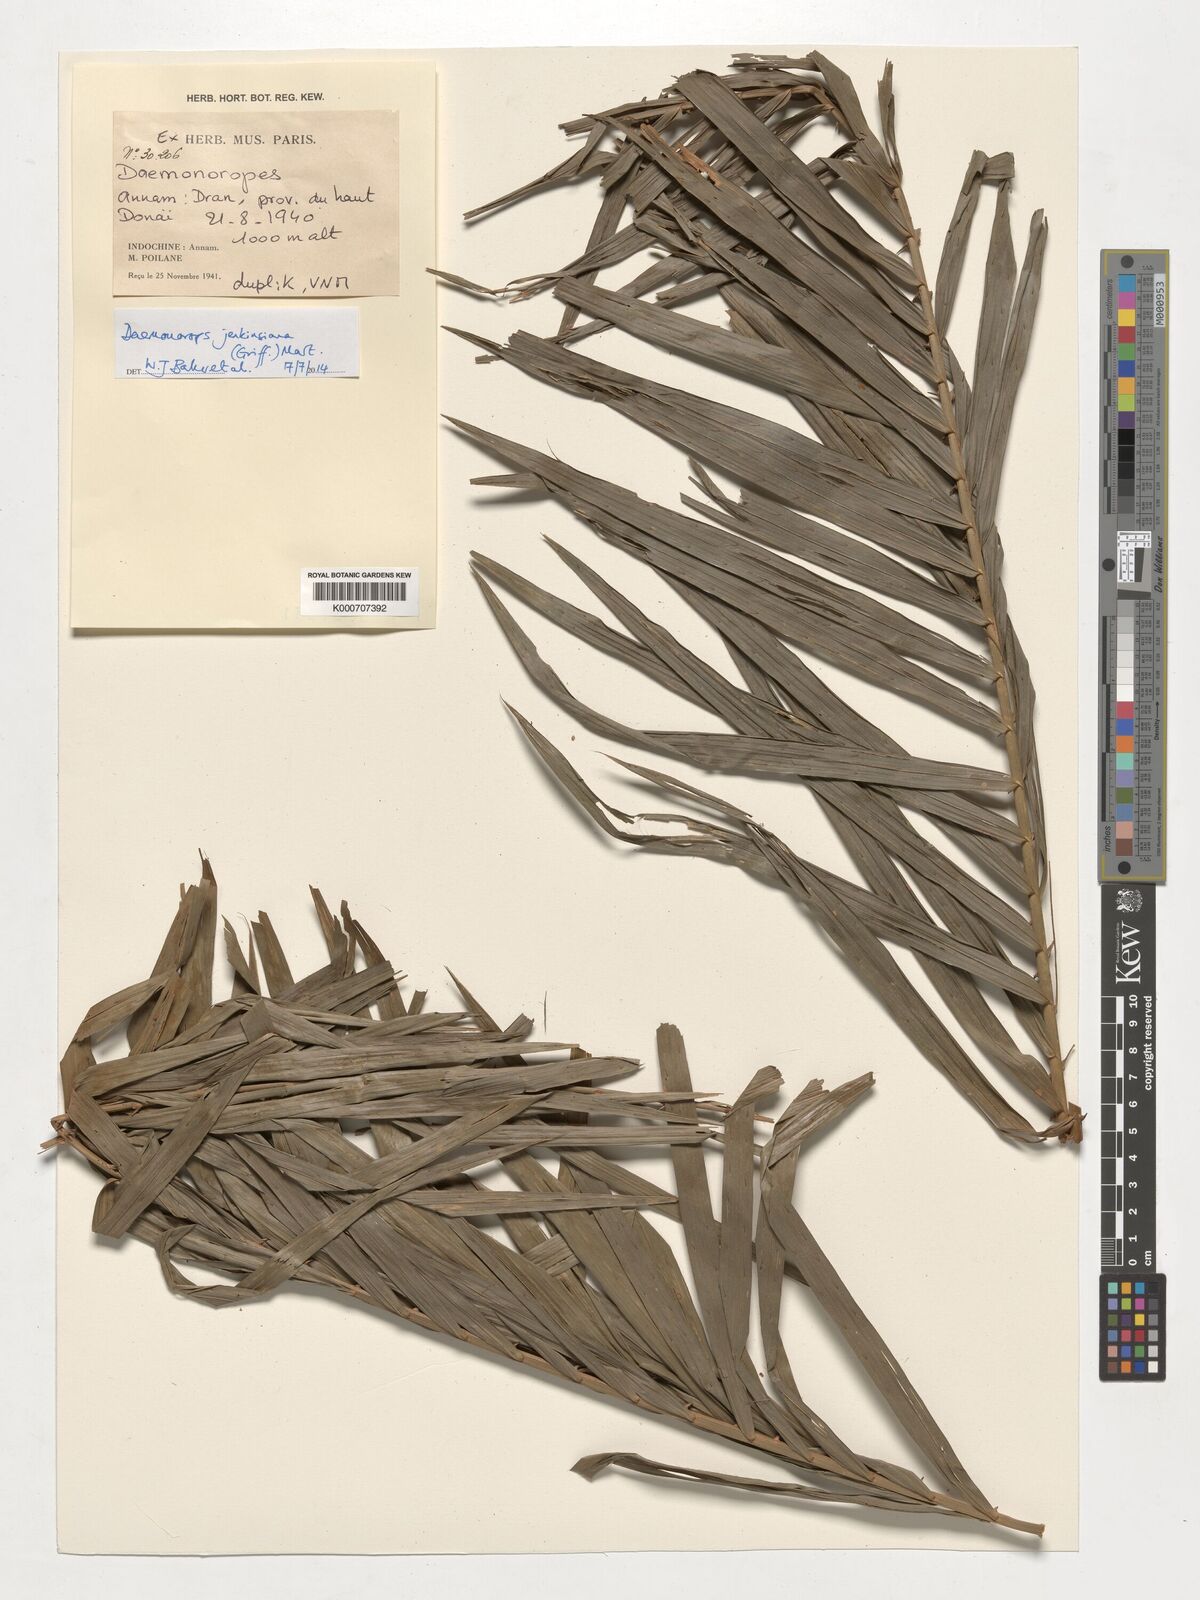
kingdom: Plantae
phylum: Tracheophyta
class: Liliopsida
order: Arecales
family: Arecaceae
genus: Calamus
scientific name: Calamus melanochaetes
